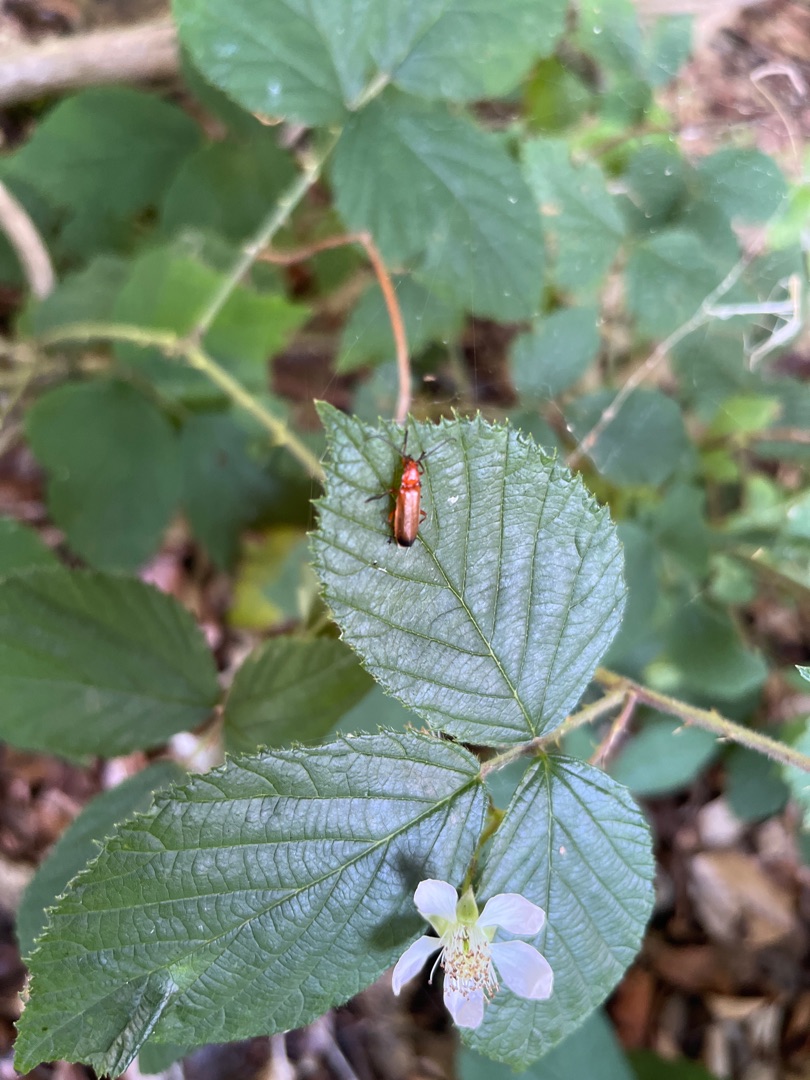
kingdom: Animalia
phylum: Arthropoda
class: Insecta
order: Coleoptera
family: Cantharidae
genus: Rhagonycha
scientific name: Rhagonycha fulva
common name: Præstebille
